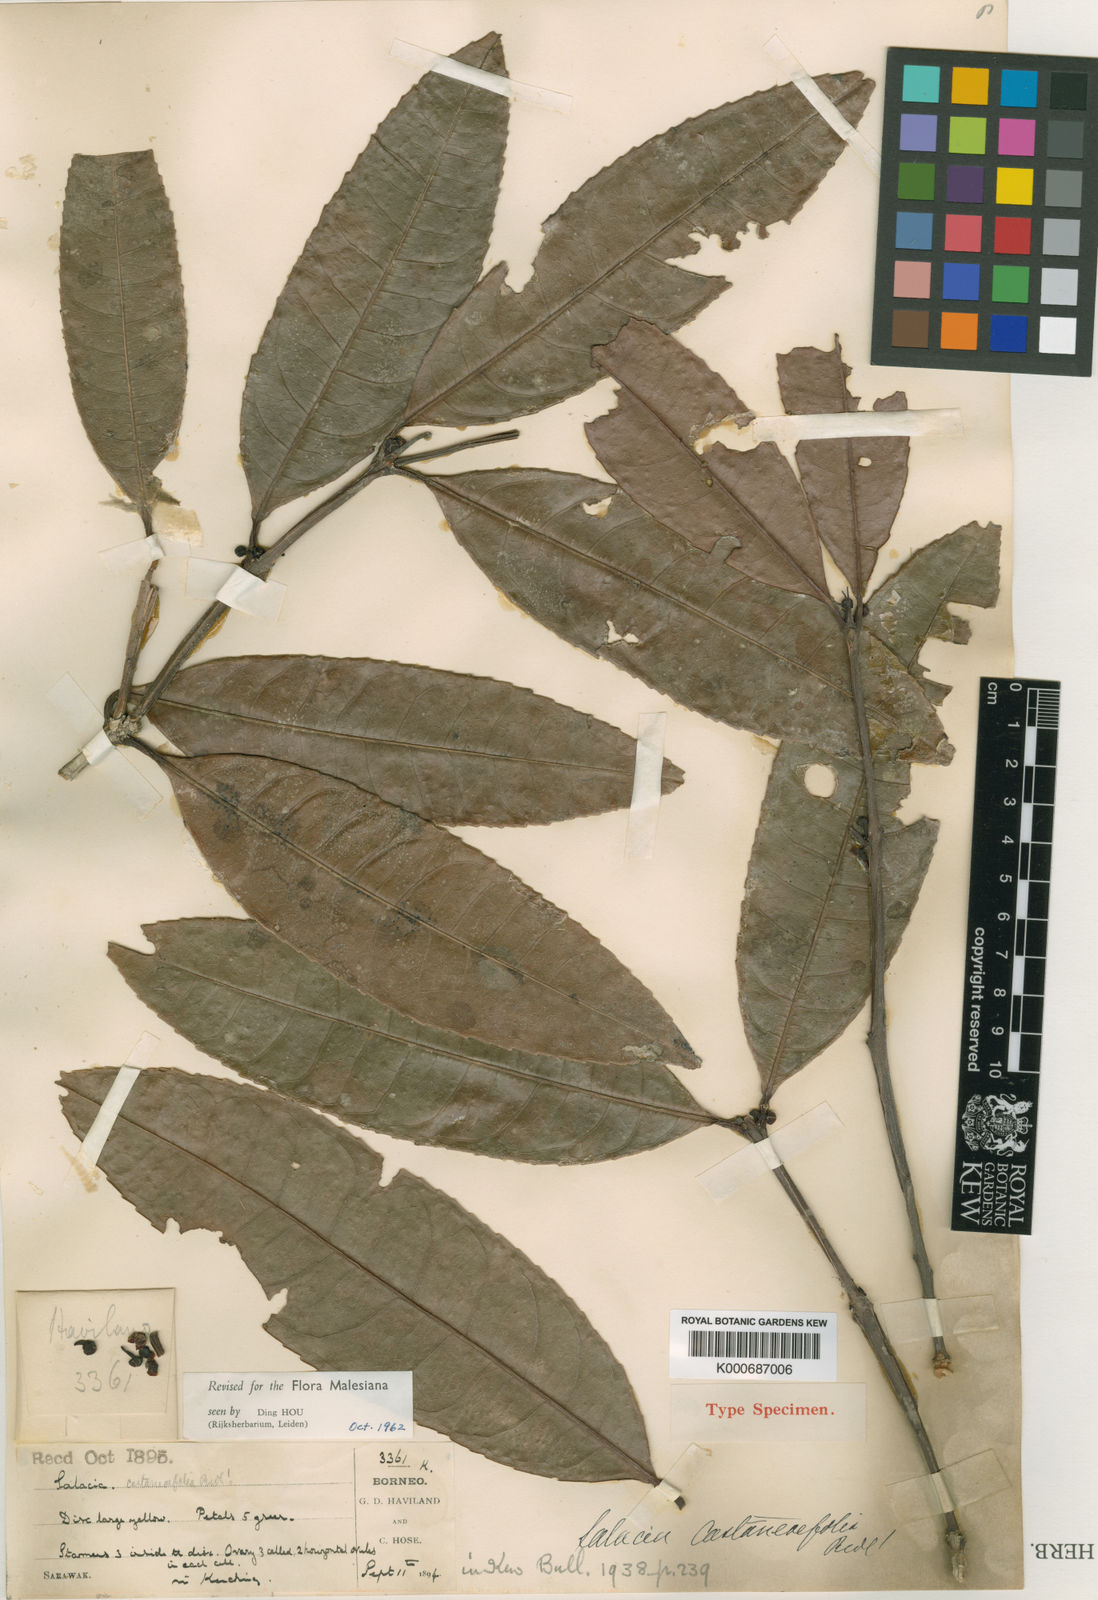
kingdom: Plantae
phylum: Tracheophyta
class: Magnoliopsida
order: Celastrales
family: Celastraceae
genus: Salacia
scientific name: Salacia castaneifolia
